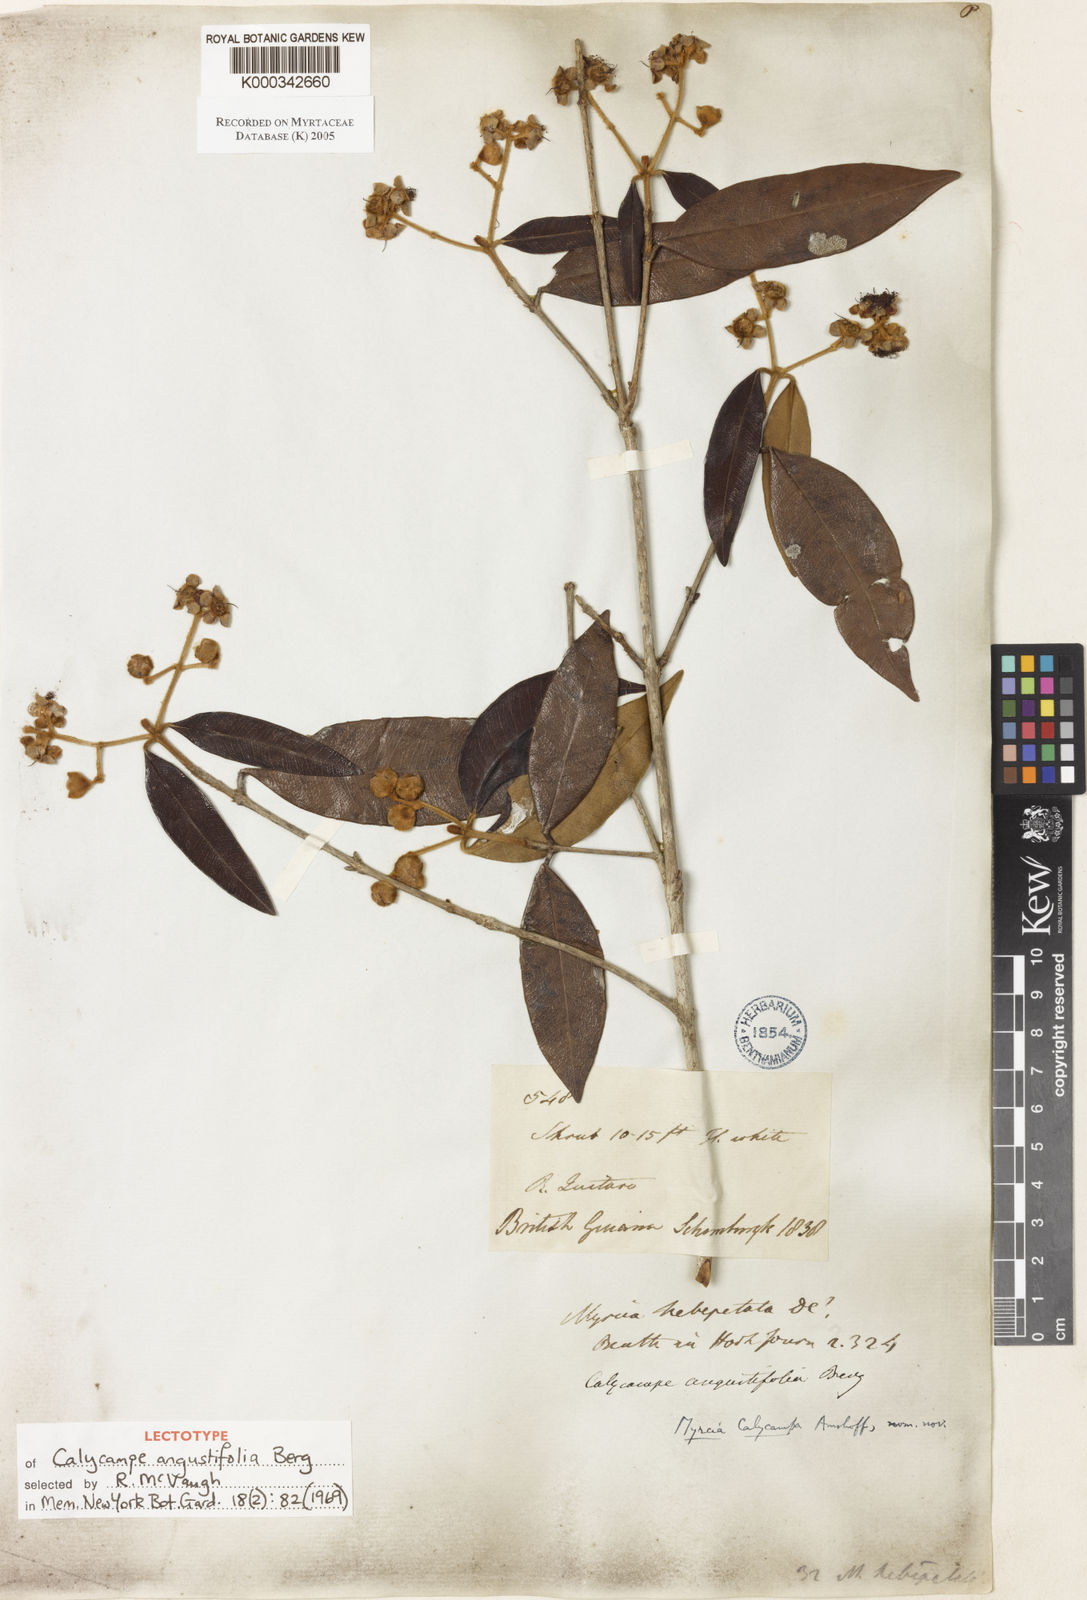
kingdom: Plantae
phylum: Tracheophyta
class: Magnoliopsida
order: Myrtales
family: Myrtaceae
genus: Myrcia
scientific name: Myrcia calycampa
